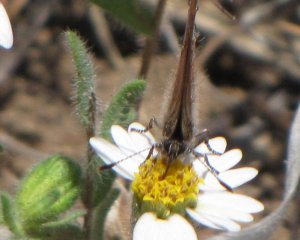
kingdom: Animalia
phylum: Arthropoda
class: Insecta
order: Lepidoptera
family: Lycaenidae
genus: Mitoura
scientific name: Mitoura gryneus
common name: Juniper Hairstreak
